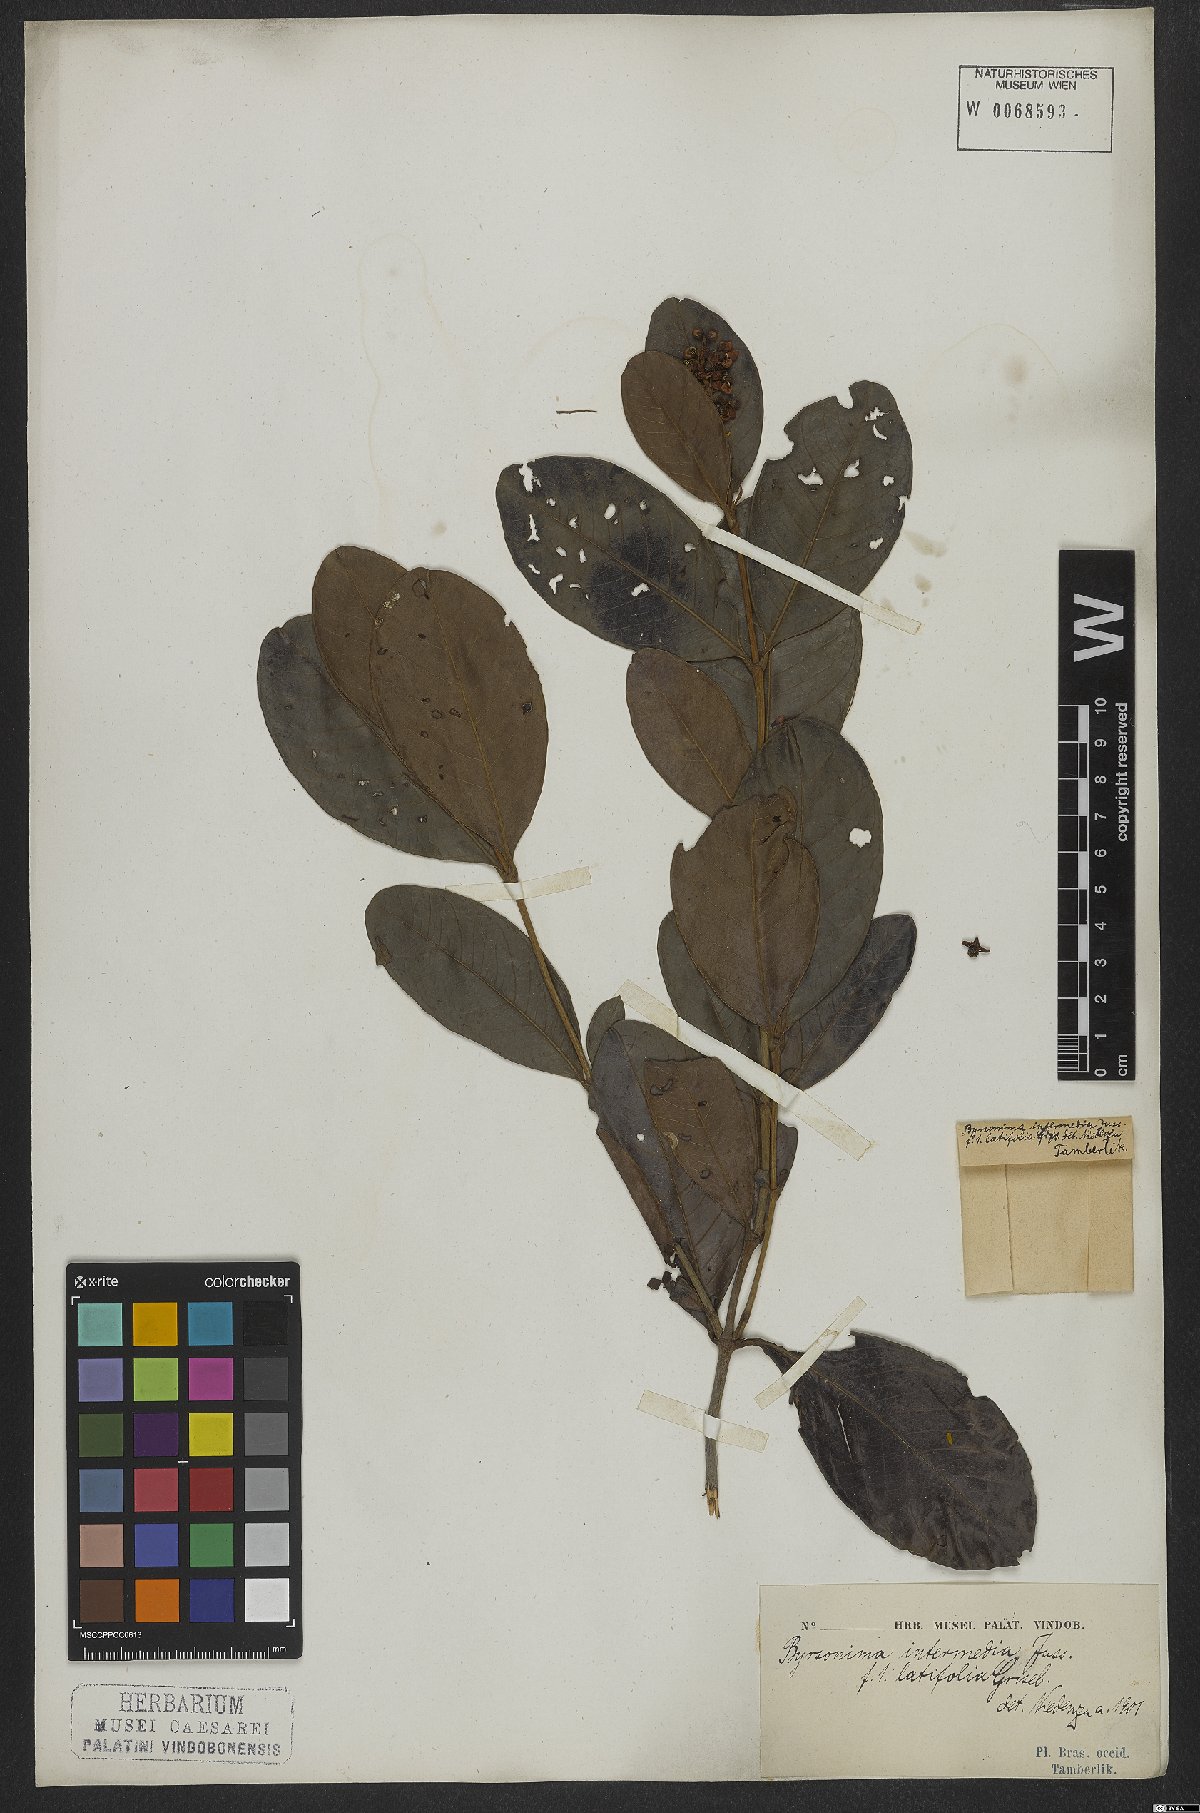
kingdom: Plantae
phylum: Tracheophyta
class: Magnoliopsida
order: Malpighiales
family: Malpighiaceae
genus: Byrsonima
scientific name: Byrsonima intermedia
